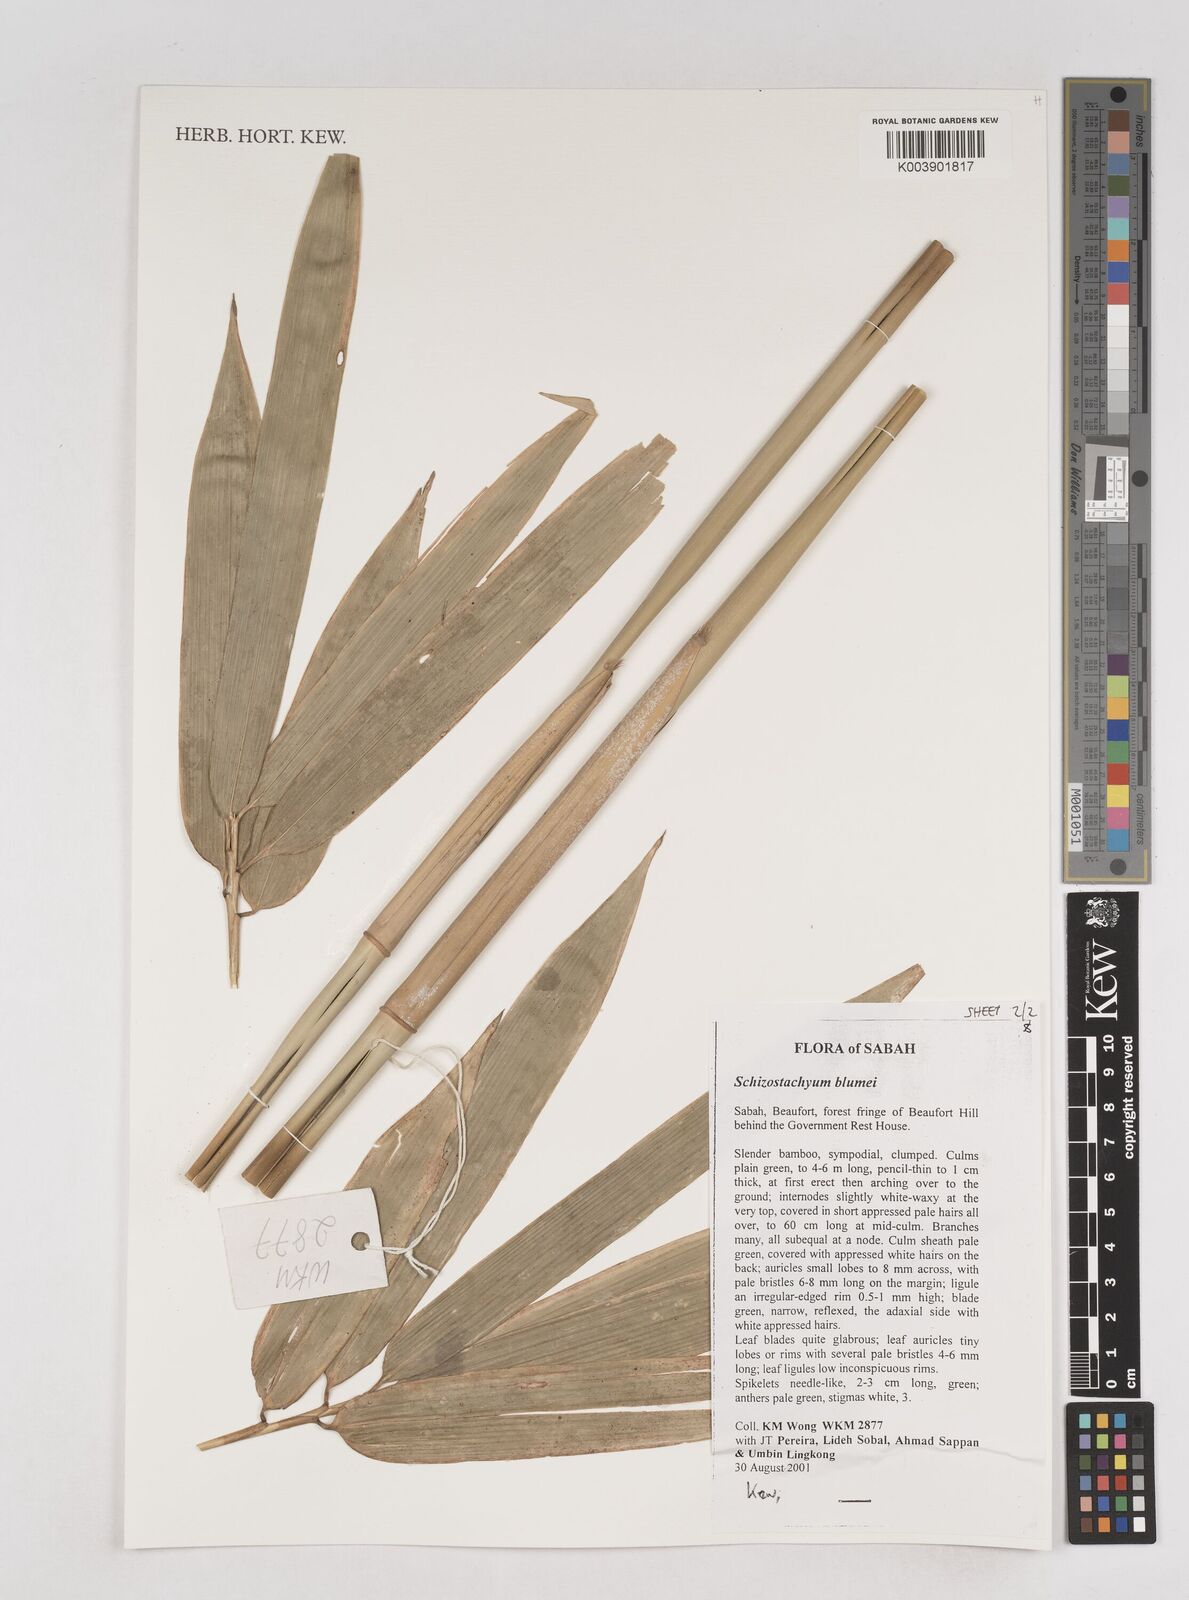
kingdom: Plantae
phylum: Tracheophyta
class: Liliopsida
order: Poales
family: Poaceae
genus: Schizostachyum
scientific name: Schizostachyum blumei
